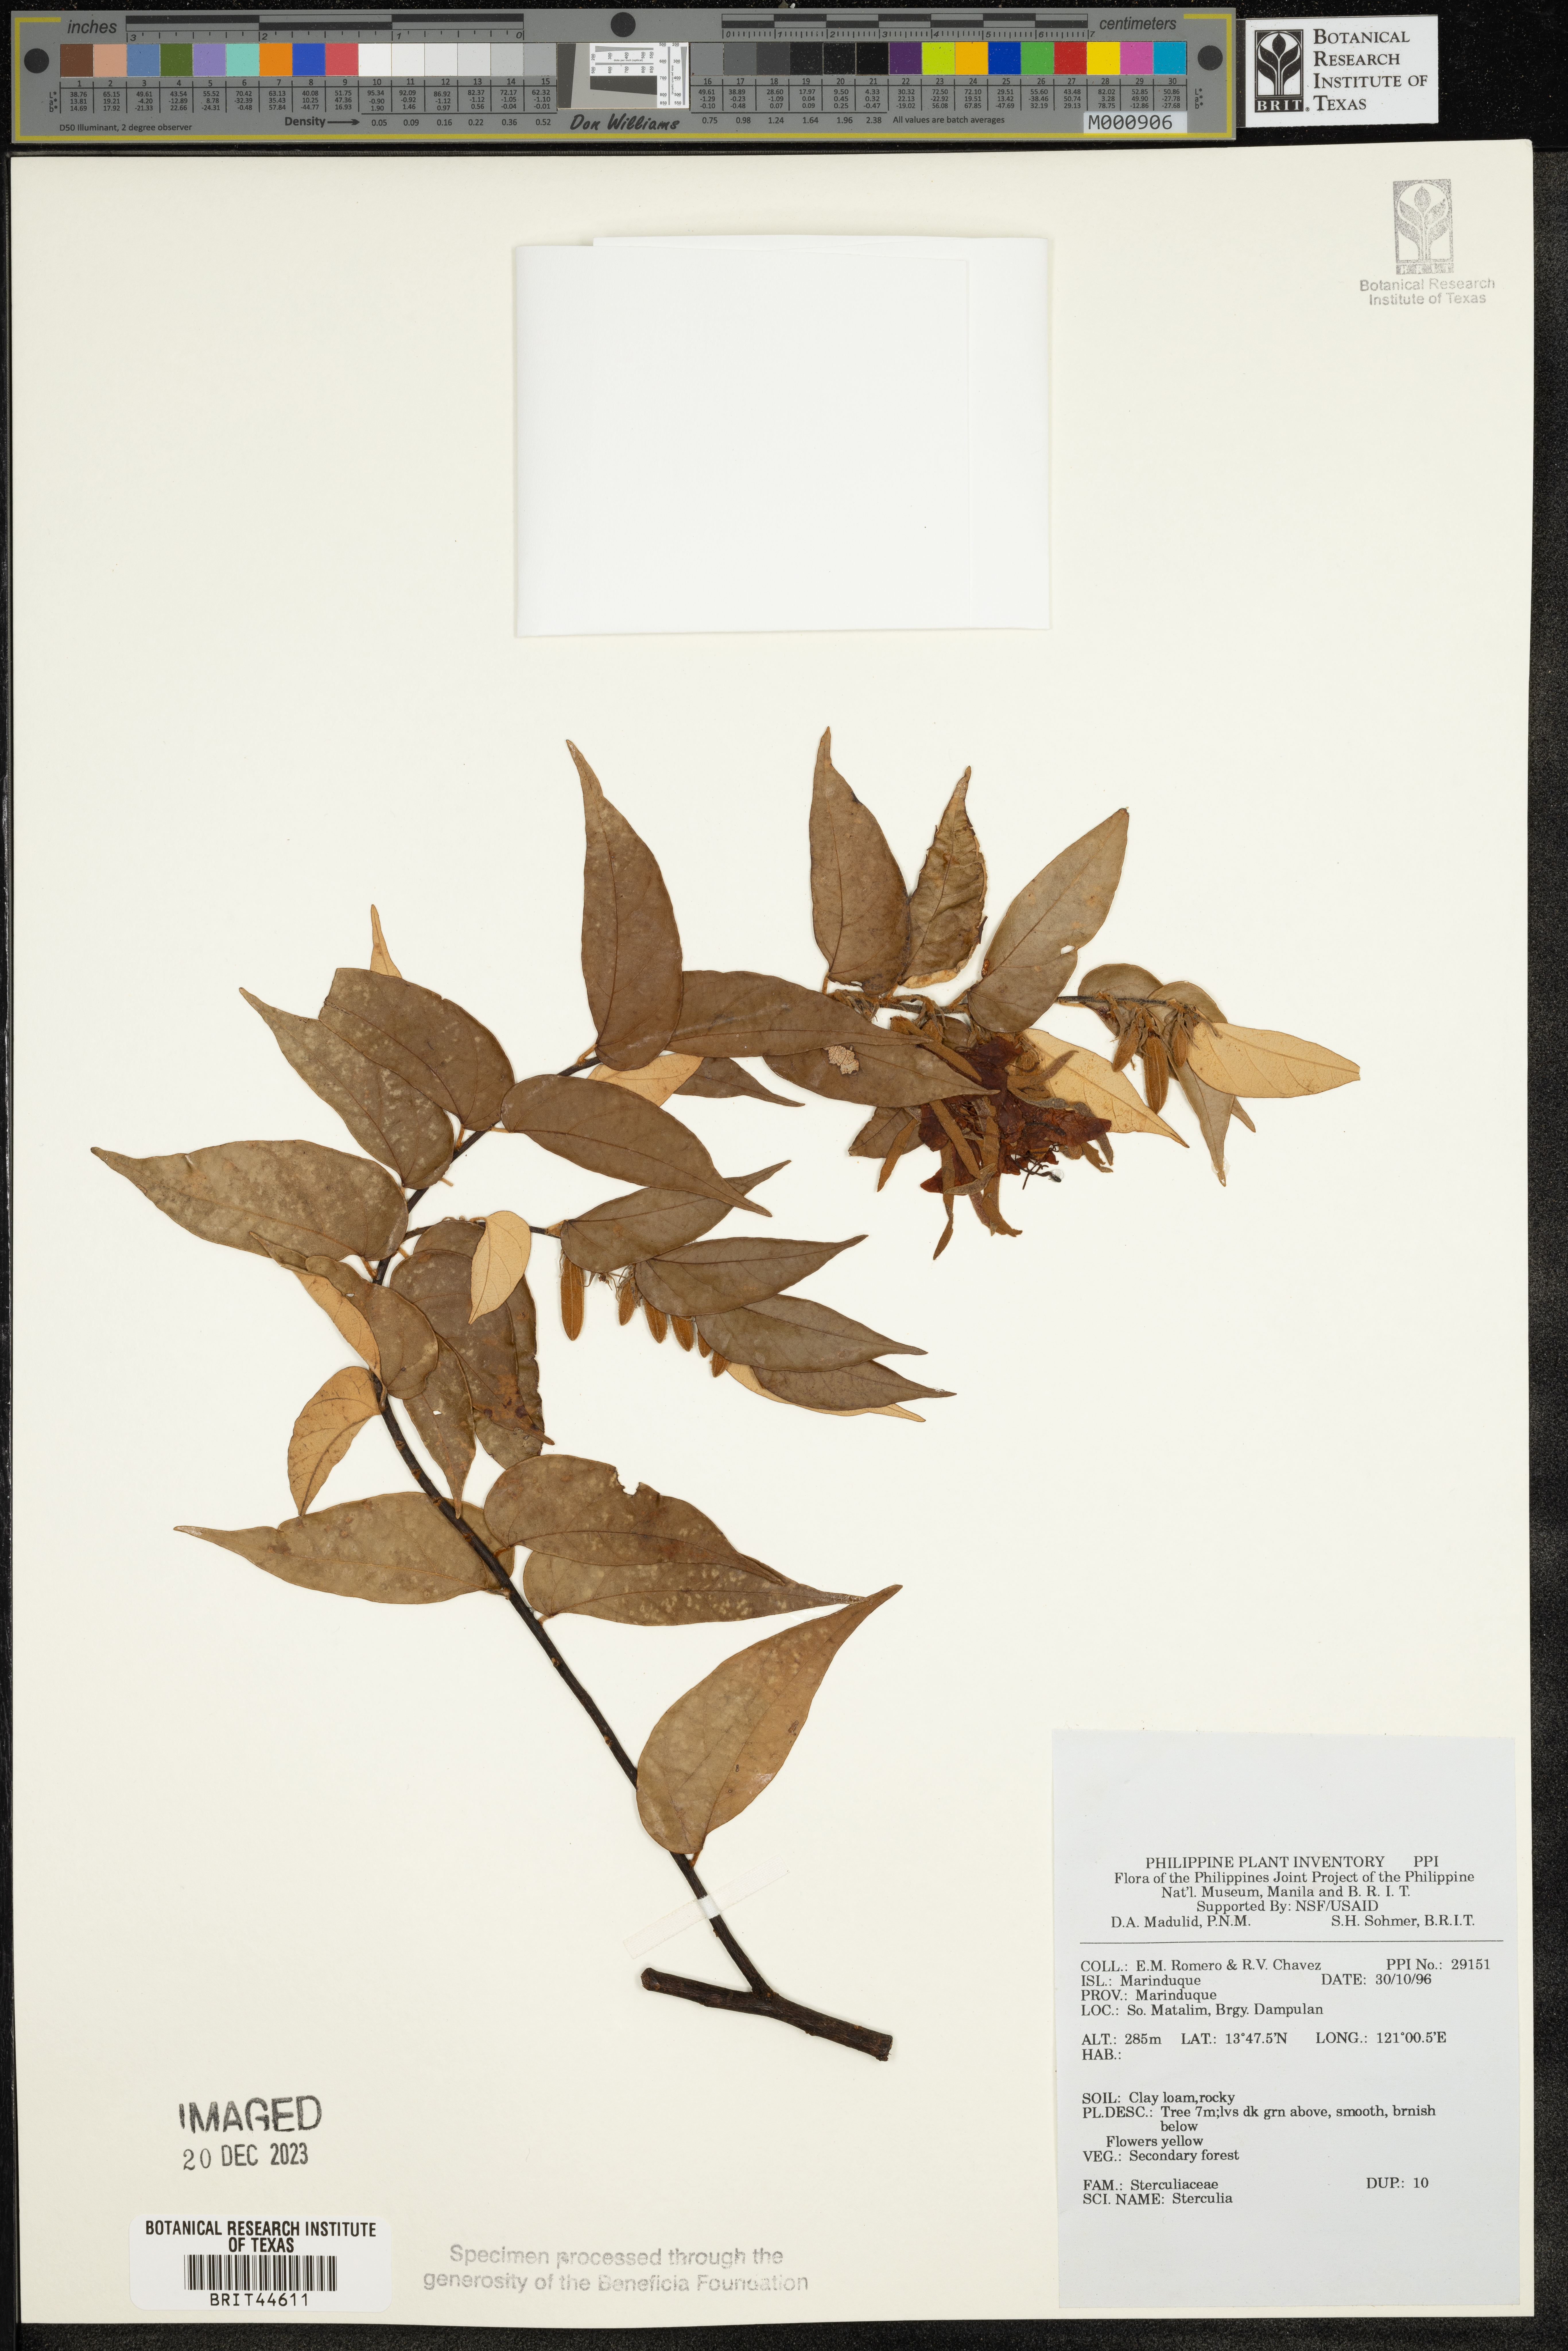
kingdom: Plantae
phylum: Tracheophyta
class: Magnoliopsida
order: Malvales
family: Malvaceae
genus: Sterculia
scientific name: Sterculia
